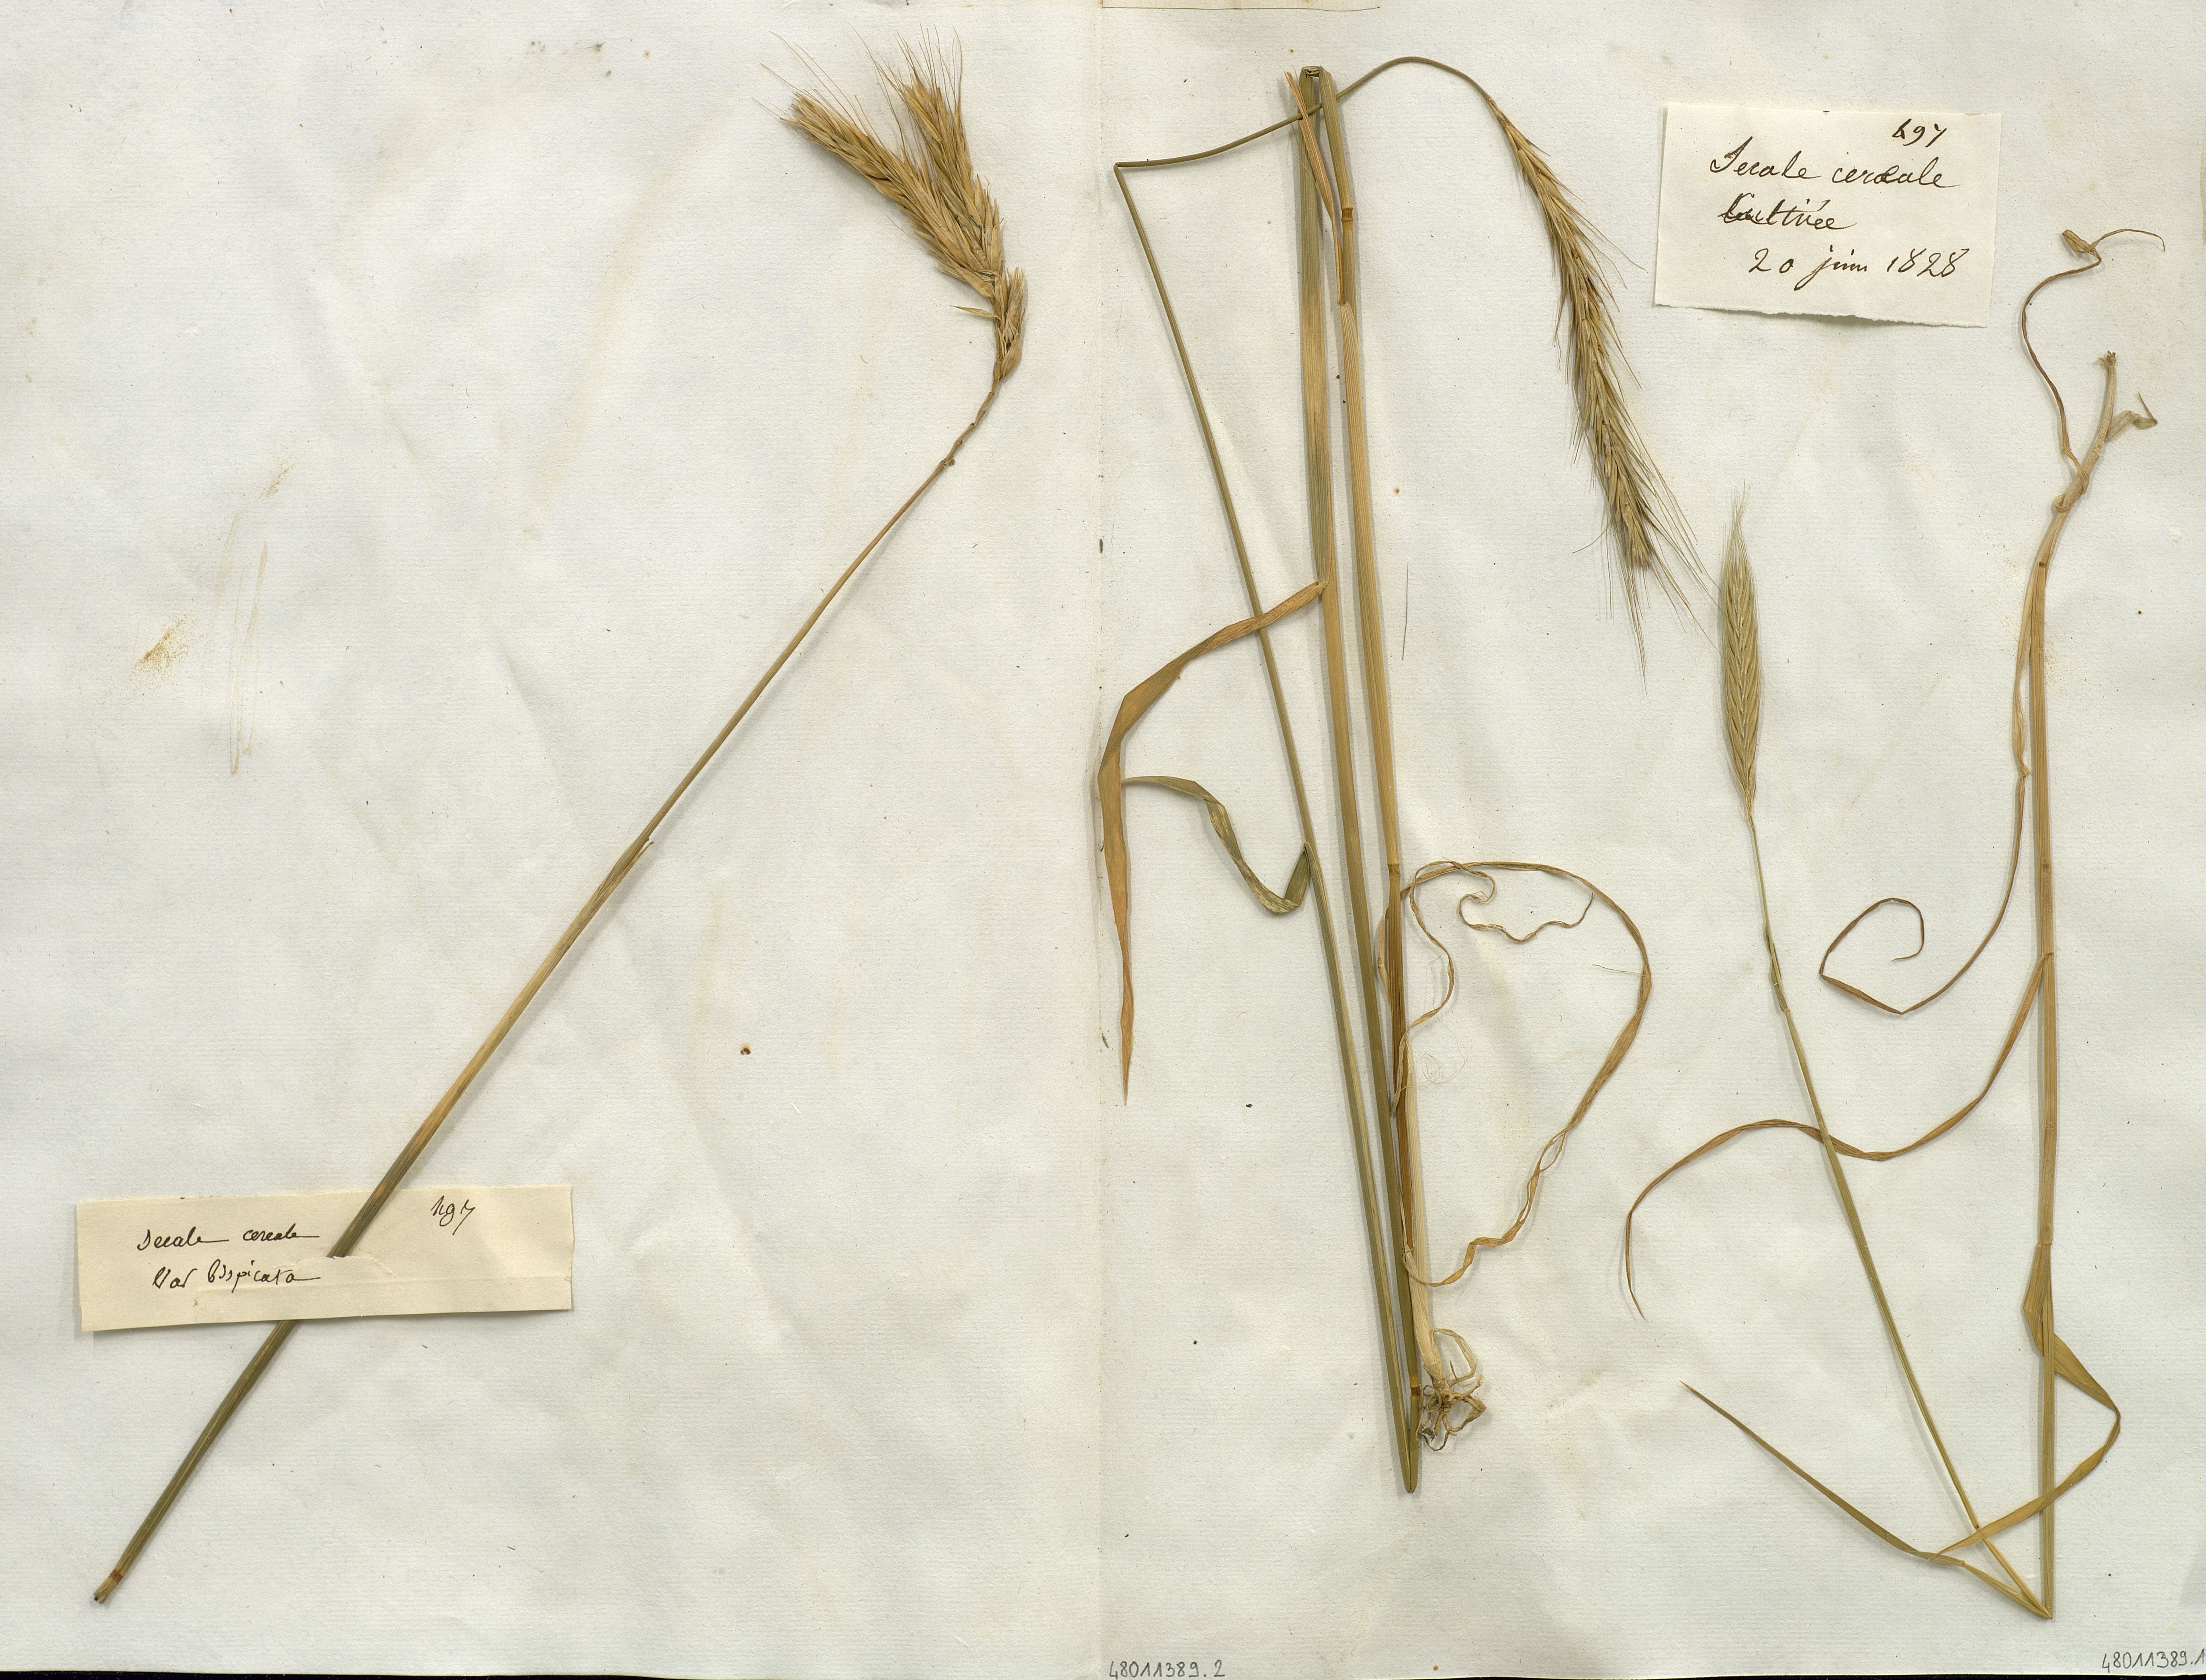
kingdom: Plantae
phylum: Tracheophyta
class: Liliopsida
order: Poales
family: Poaceae
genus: Secale
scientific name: Secale cereale
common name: Rye
